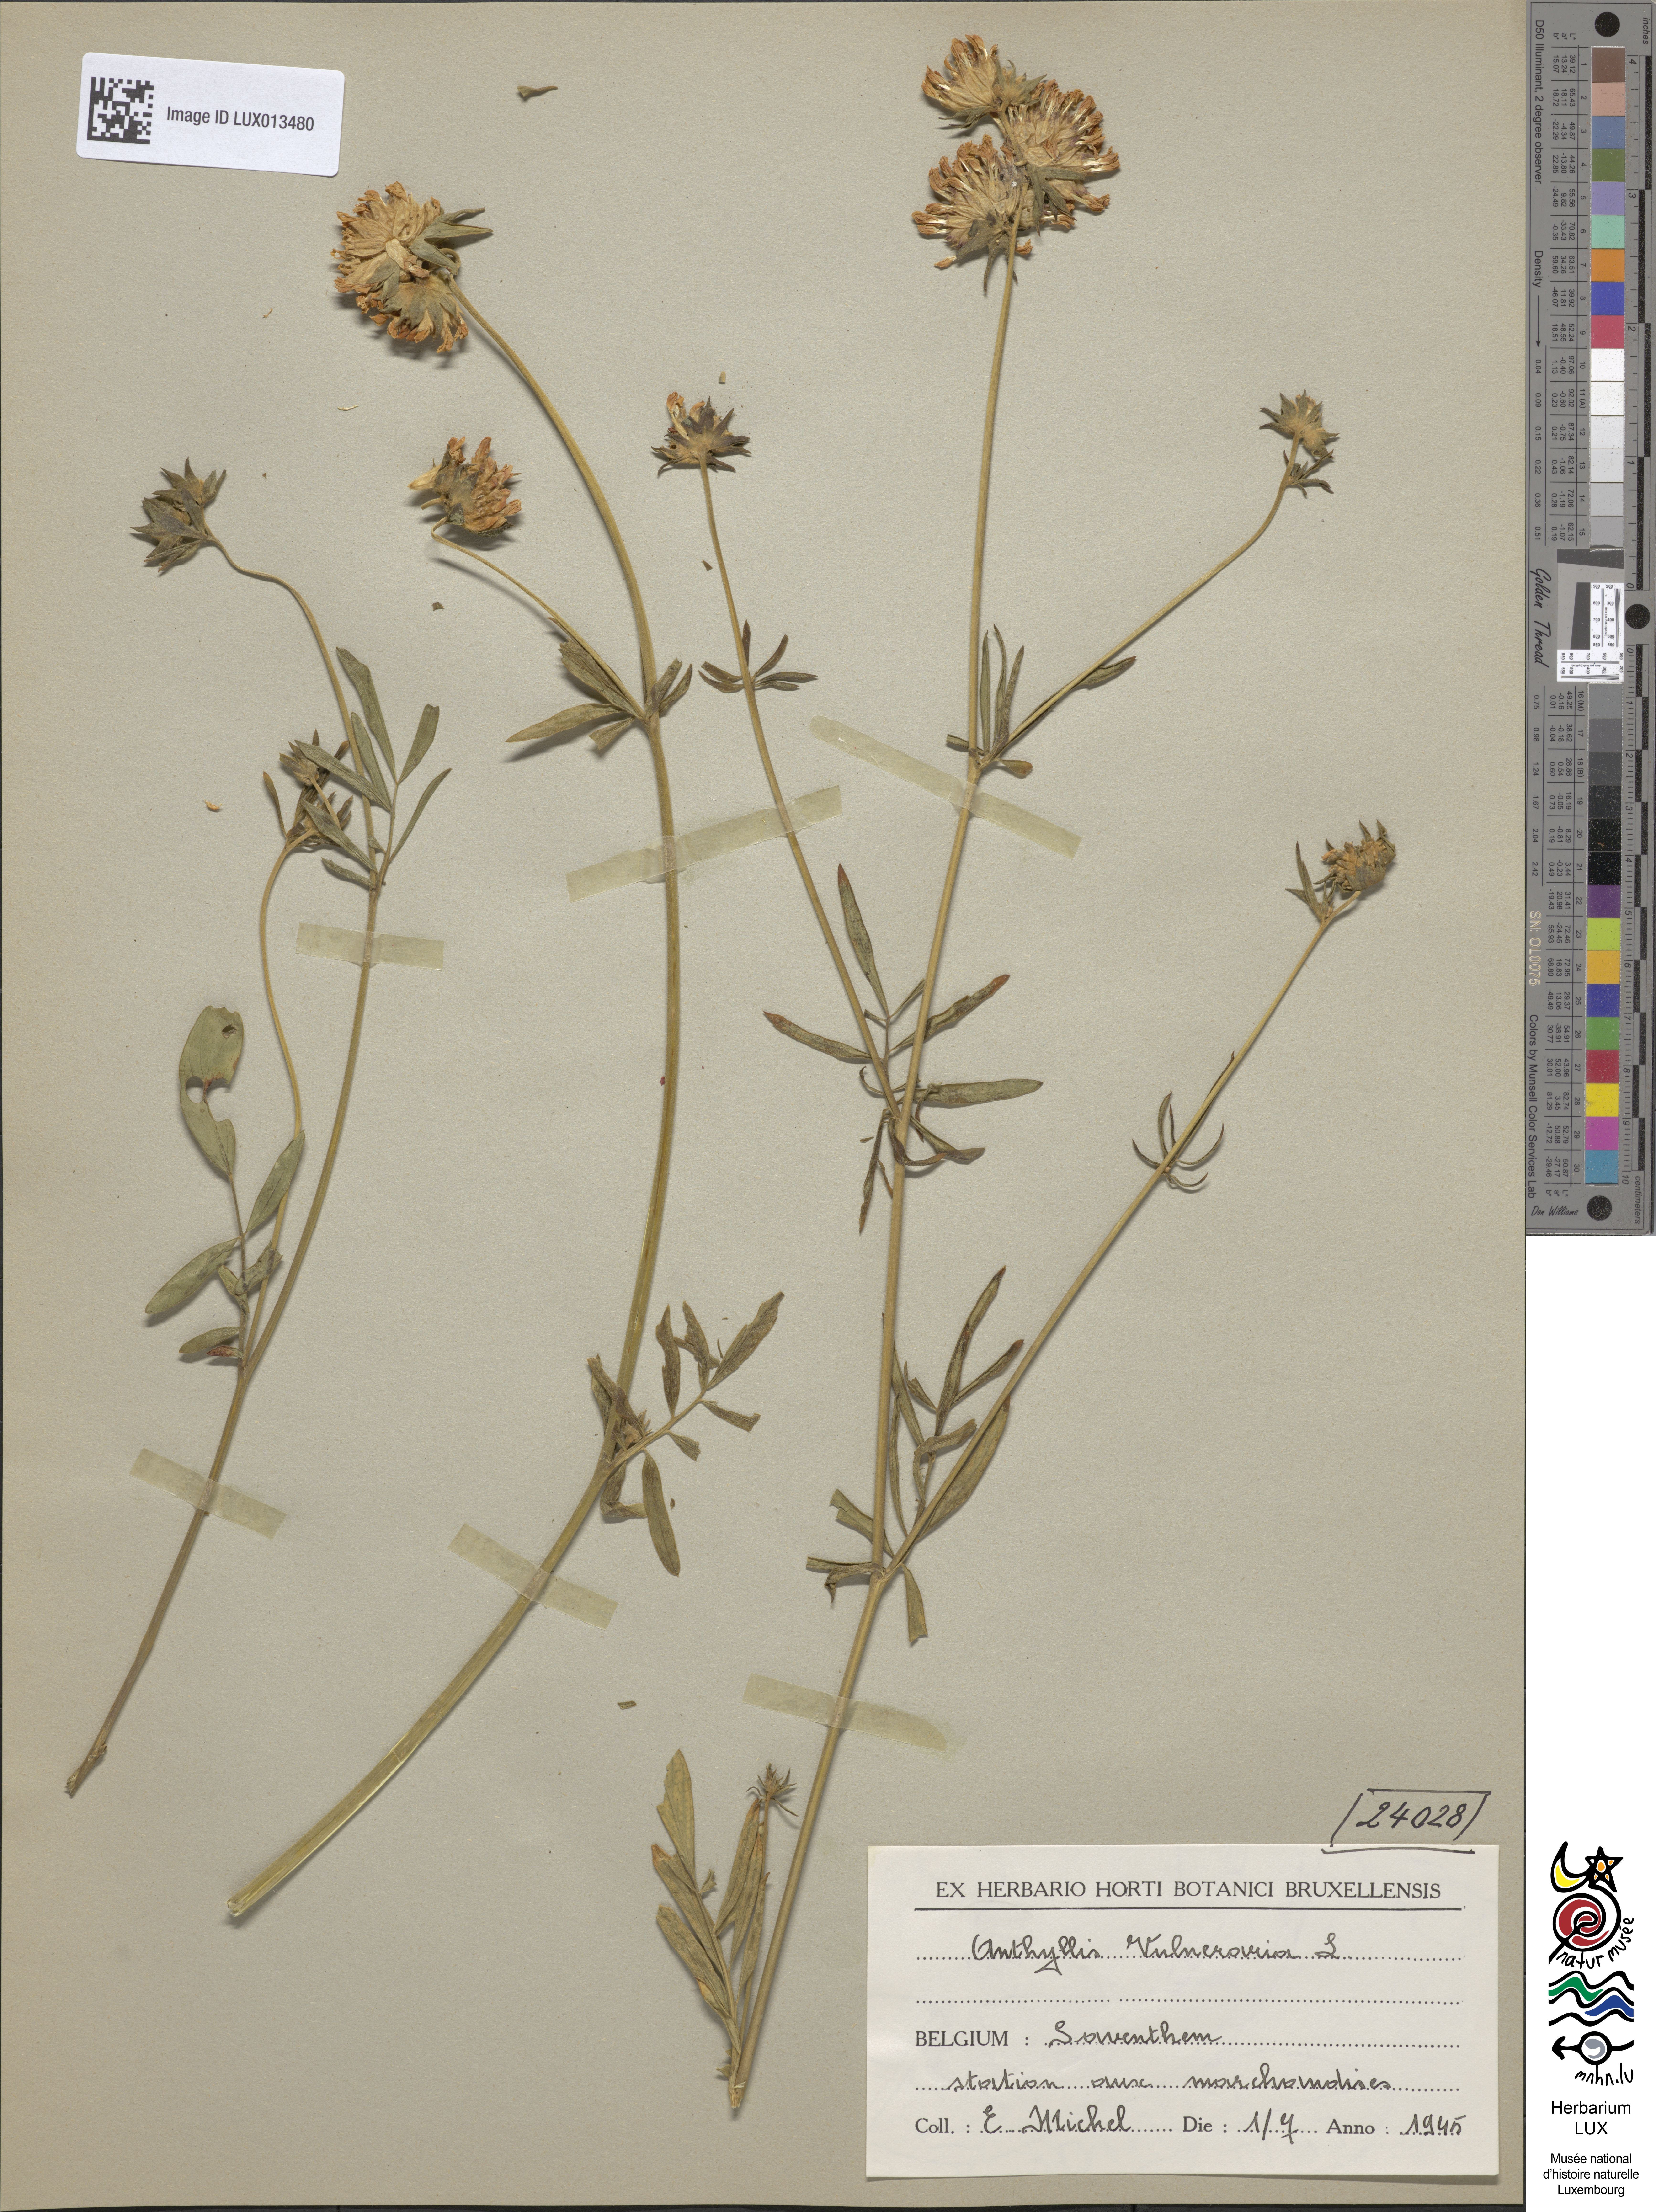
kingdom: Plantae
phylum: Tracheophyta
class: Magnoliopsida
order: Fabales
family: Fabaceae
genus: Anthyllis
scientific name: Anthyllis vulneraria
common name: Kidney vetch
